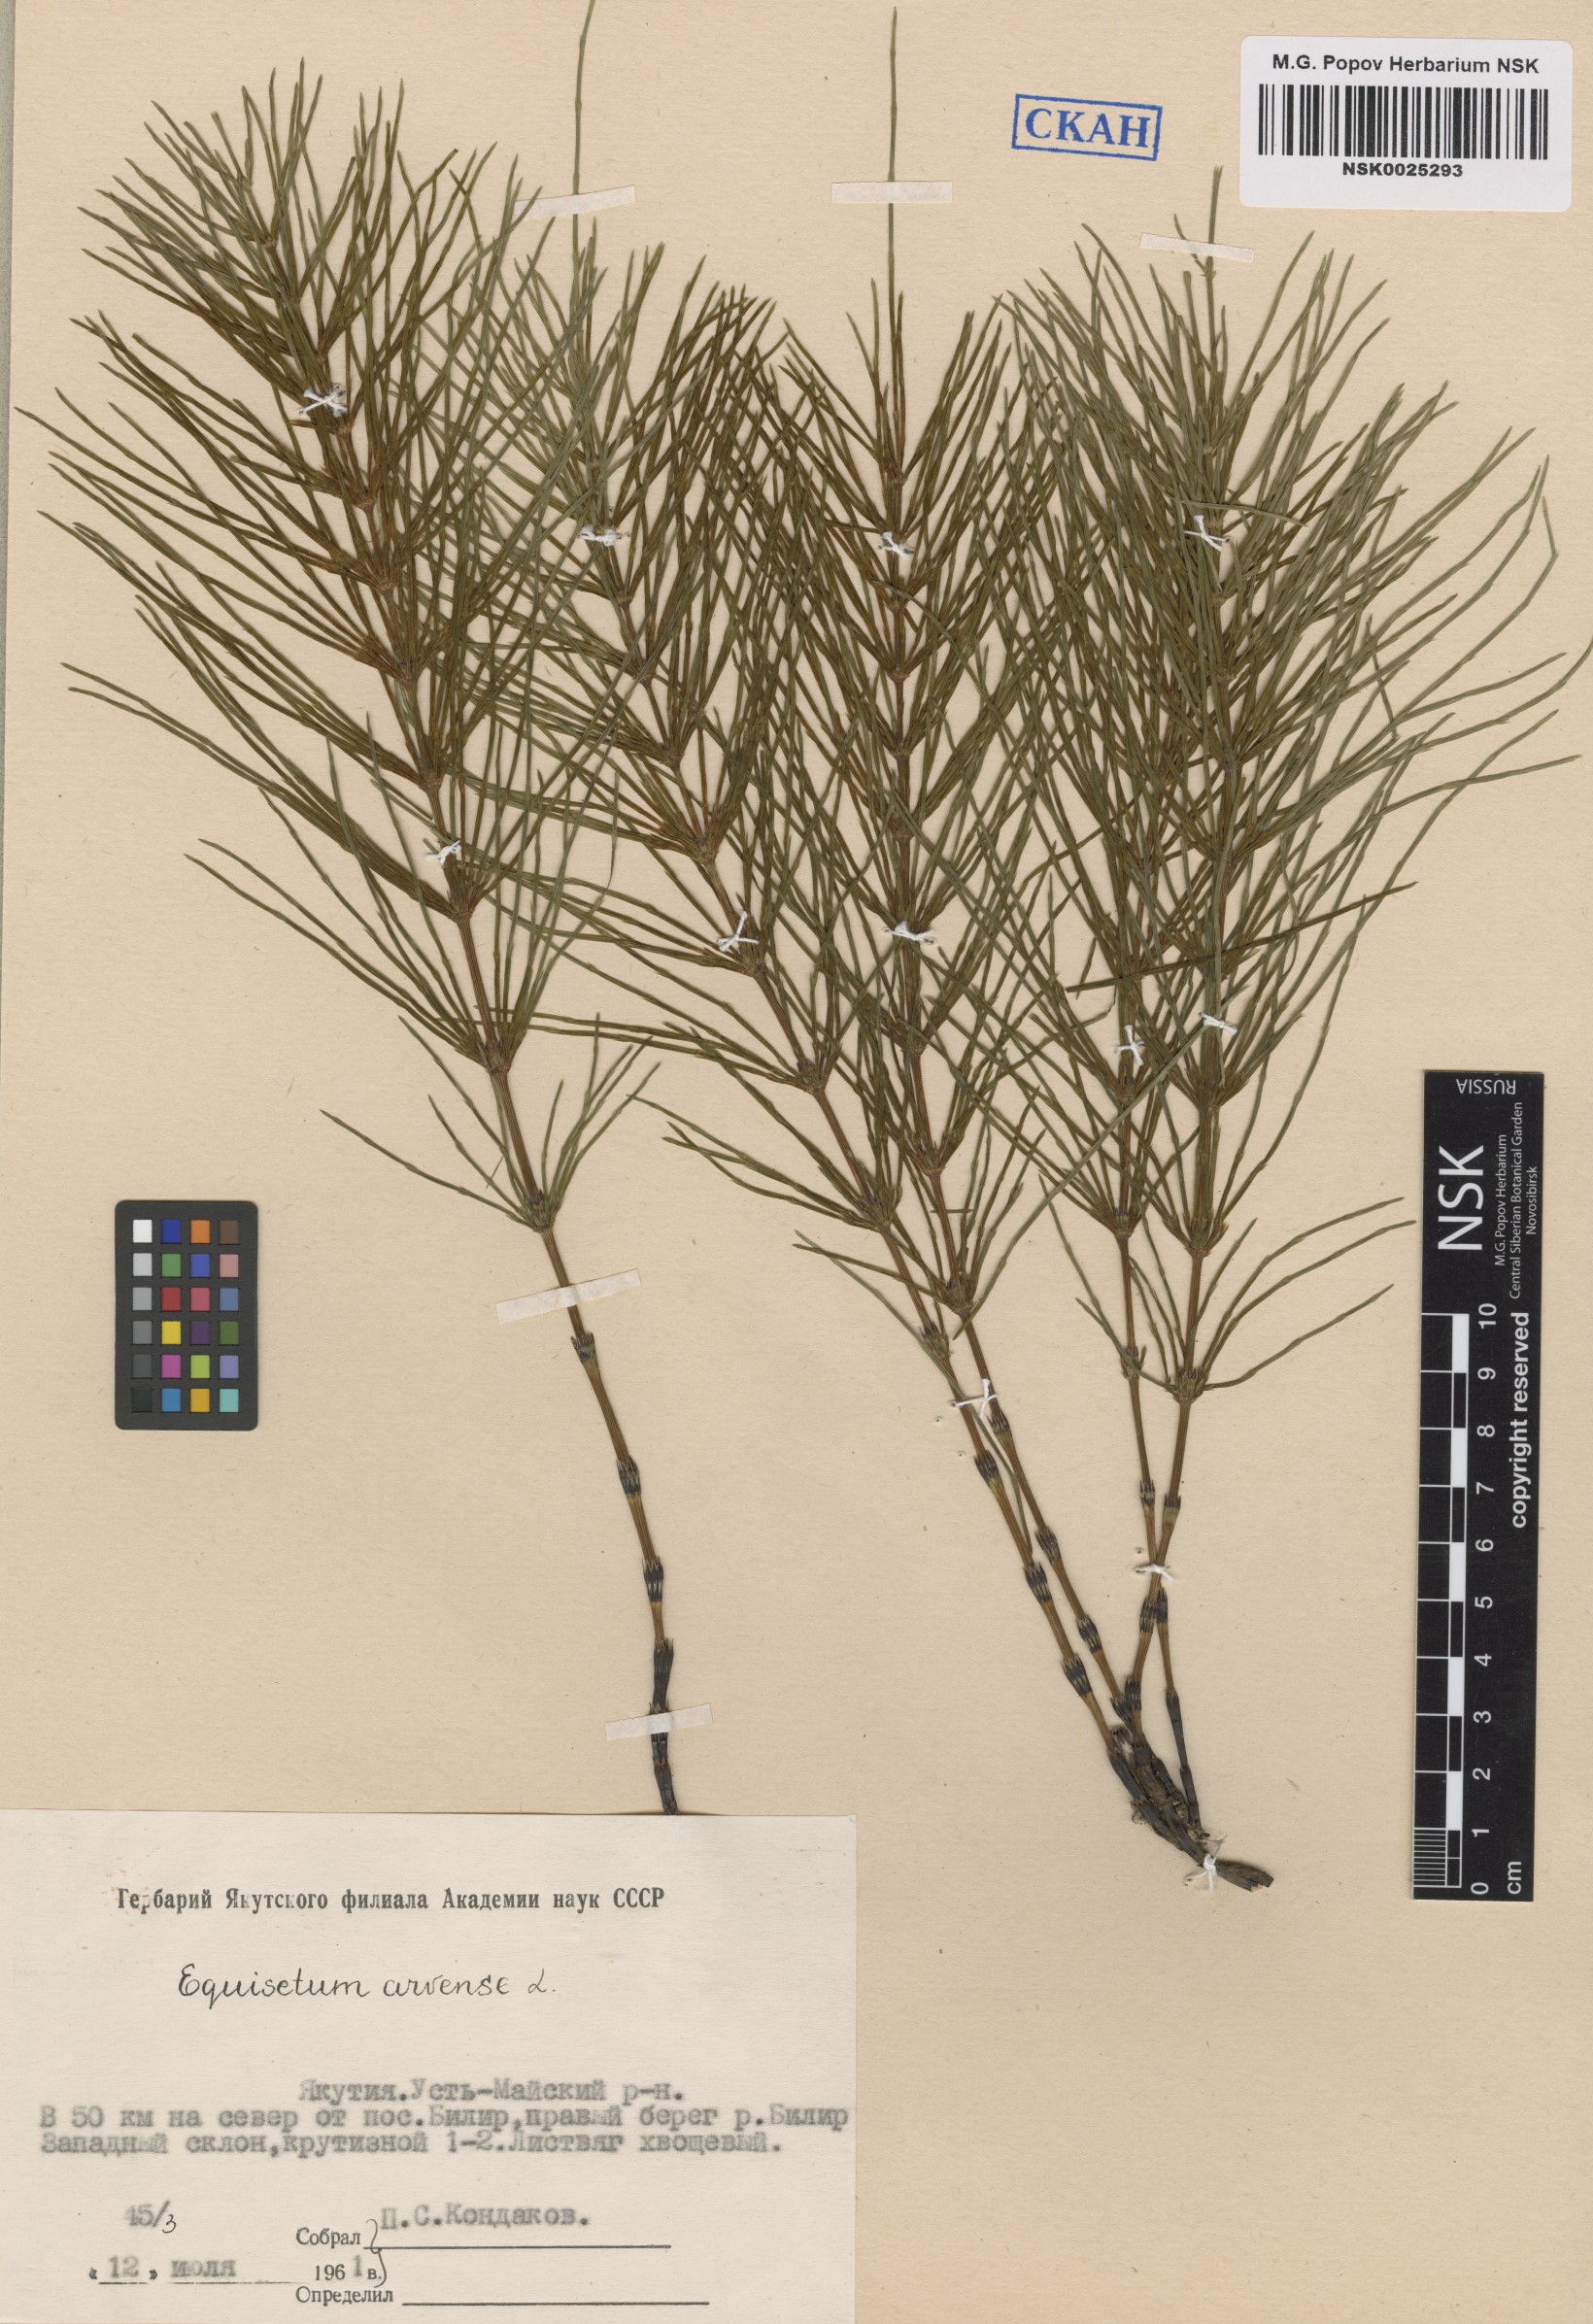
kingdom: Plantae
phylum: Tracheophyta
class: Polypodiopsida
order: Equisetales
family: Equisetaceae
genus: Equisetum
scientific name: Equisetum arvense
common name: Field horsetail
